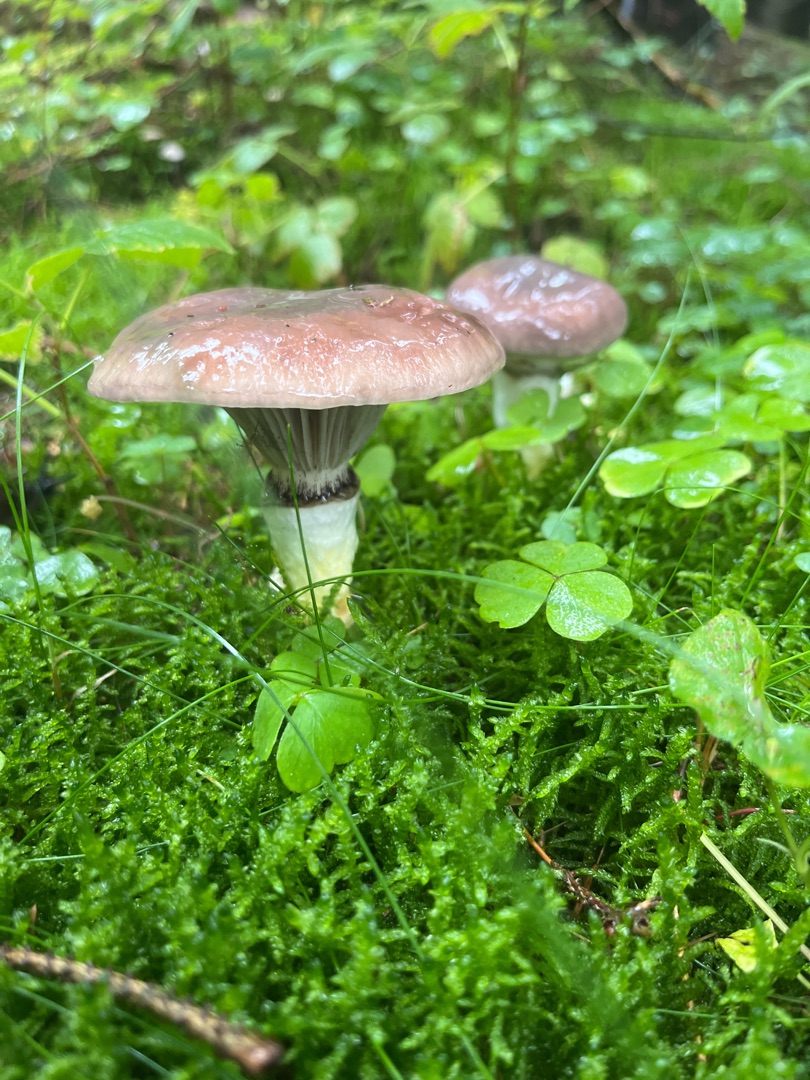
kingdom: Fungi
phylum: Basidiomycota
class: Agaricomycetes
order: Boletales
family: Gomphidiaceae
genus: Gomphidius
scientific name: Gomphidius glutinosus
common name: Grå slimslør
